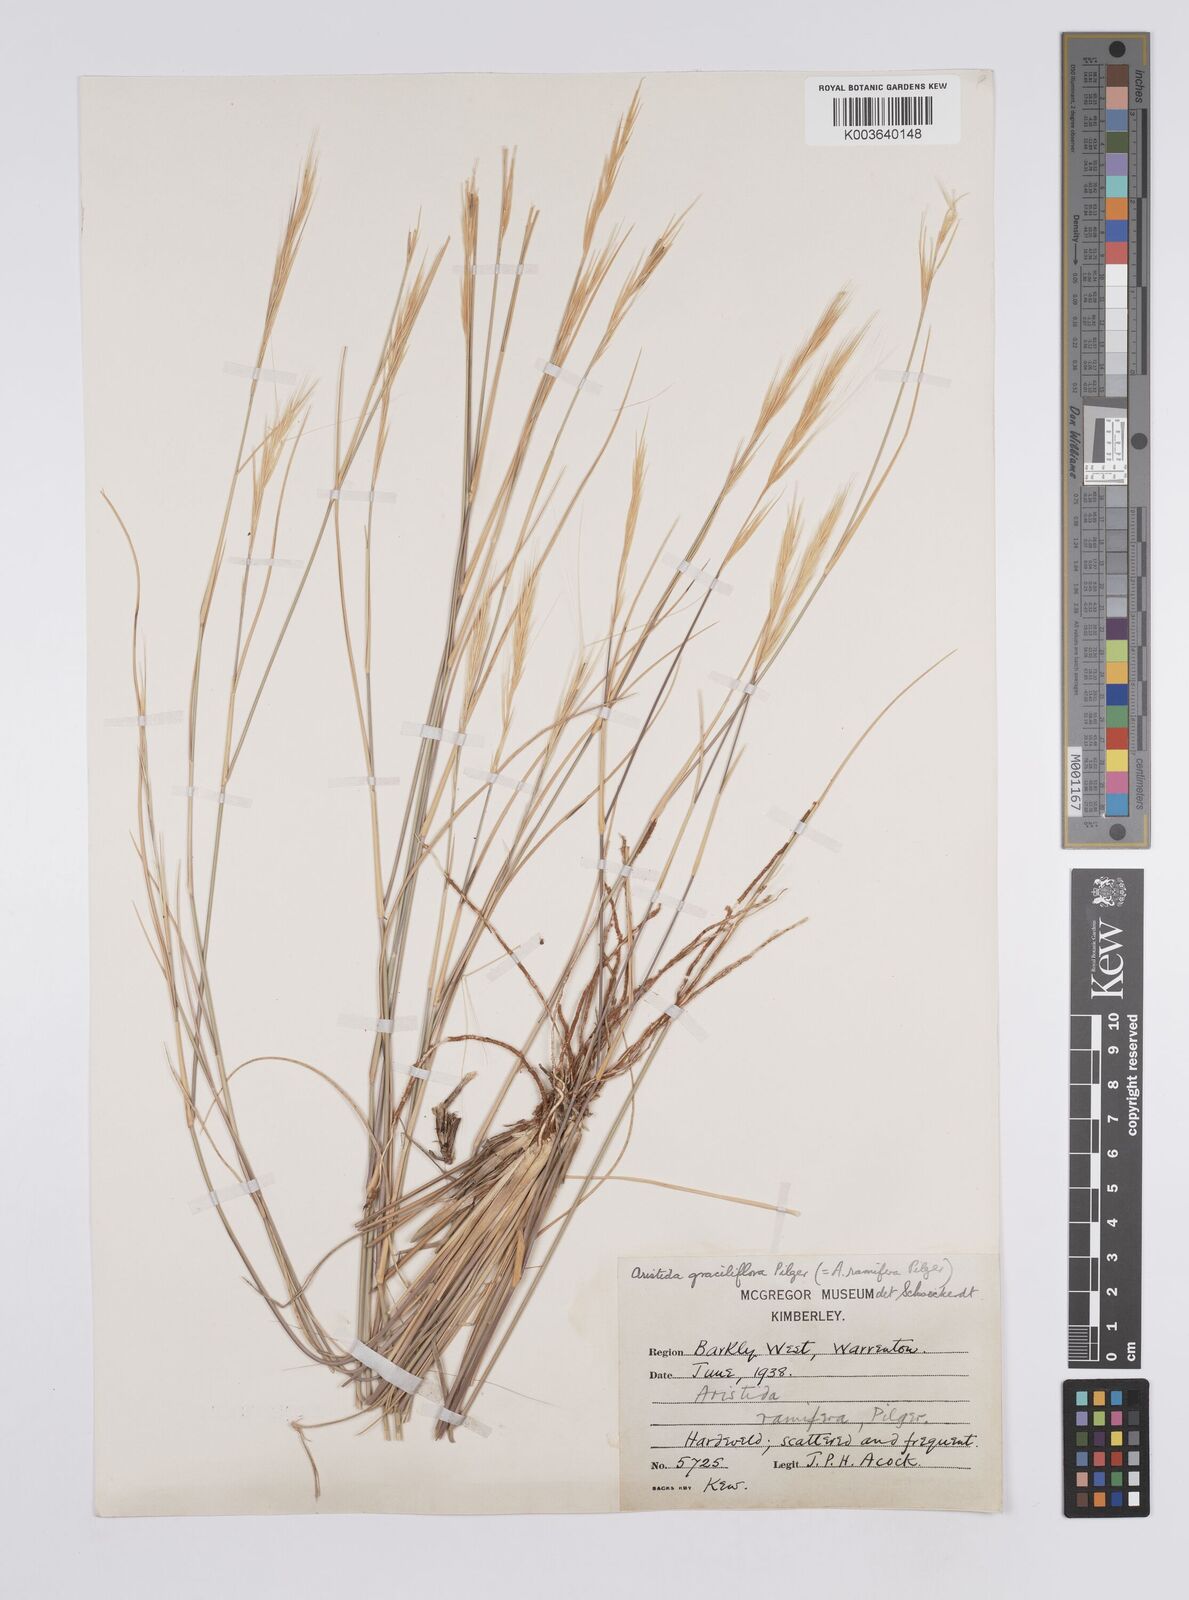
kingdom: Plantae
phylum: Tracheophyta
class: Liliopsida
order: Poales
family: Poaceae
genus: Aristida
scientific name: Aristida stipitata
